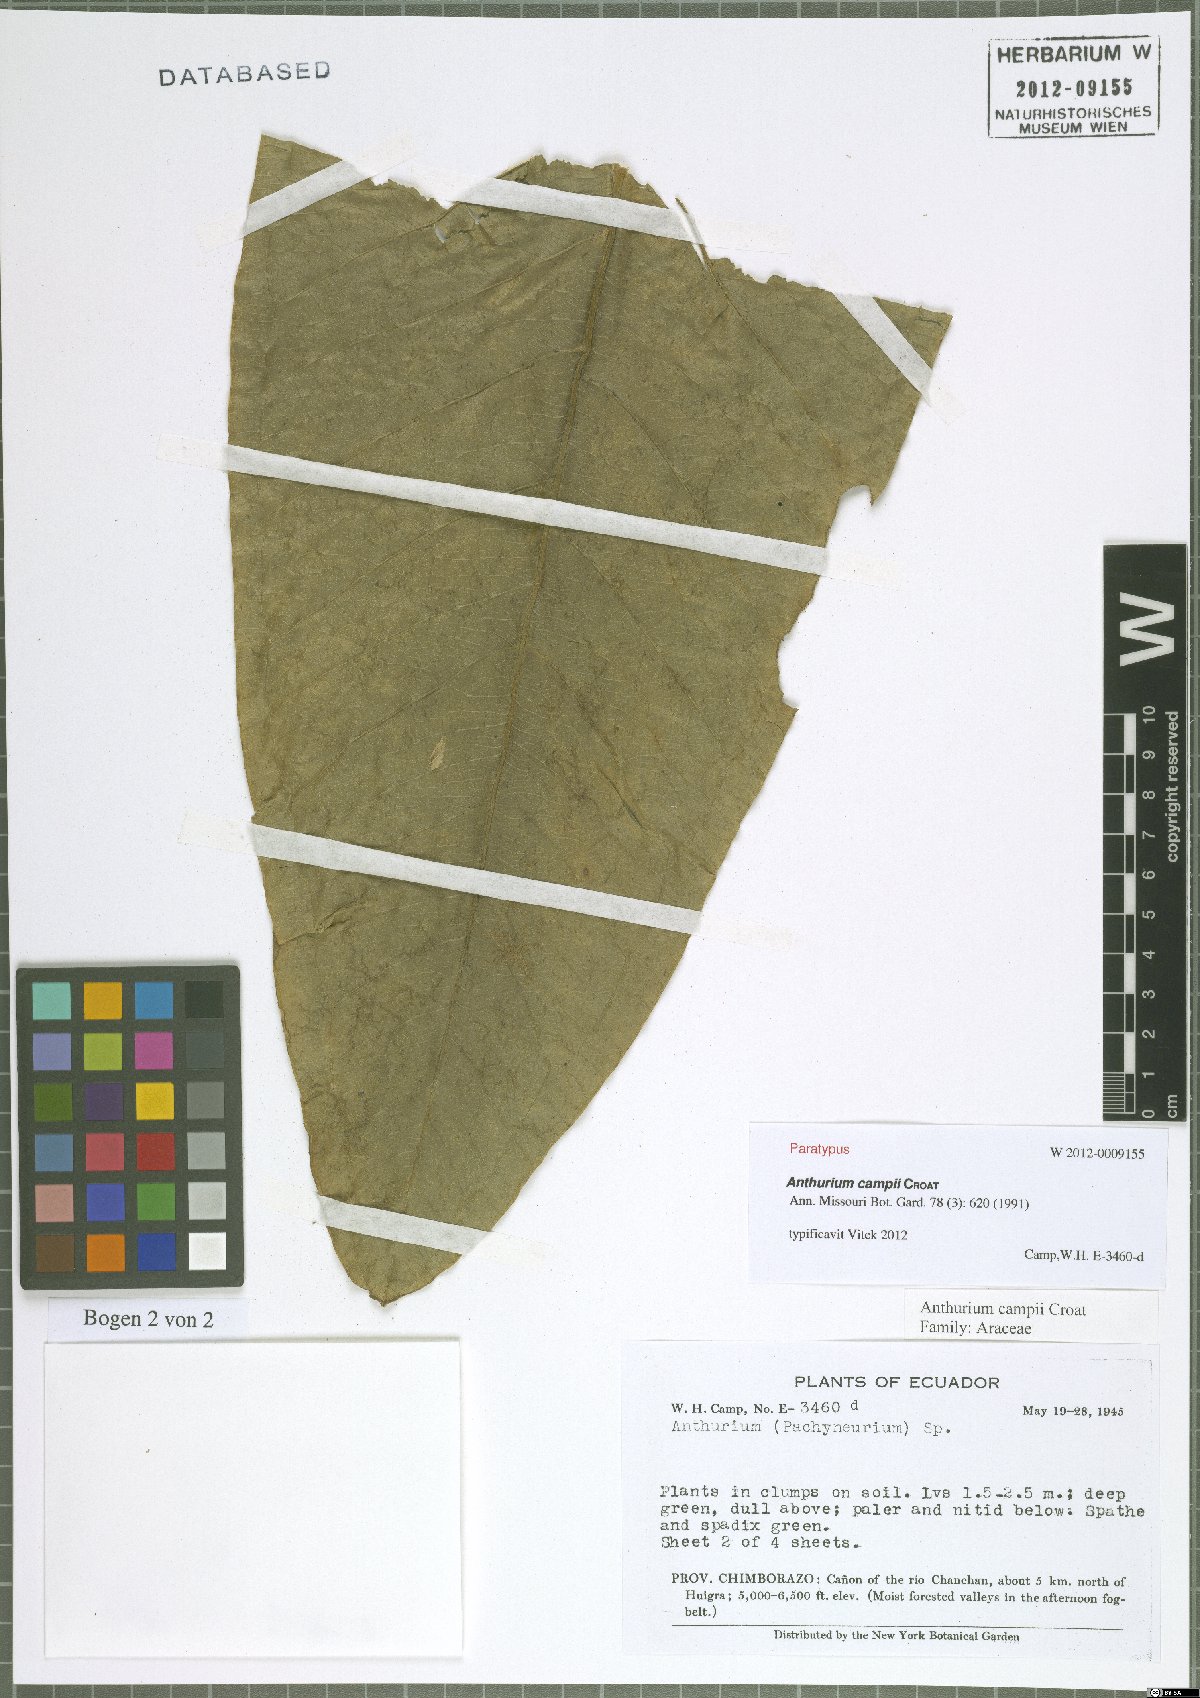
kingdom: Plantae
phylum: Tracheophyta
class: Liliopsida
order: Alismatales
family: Araceae
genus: Anthurium
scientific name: Anthurium campii
